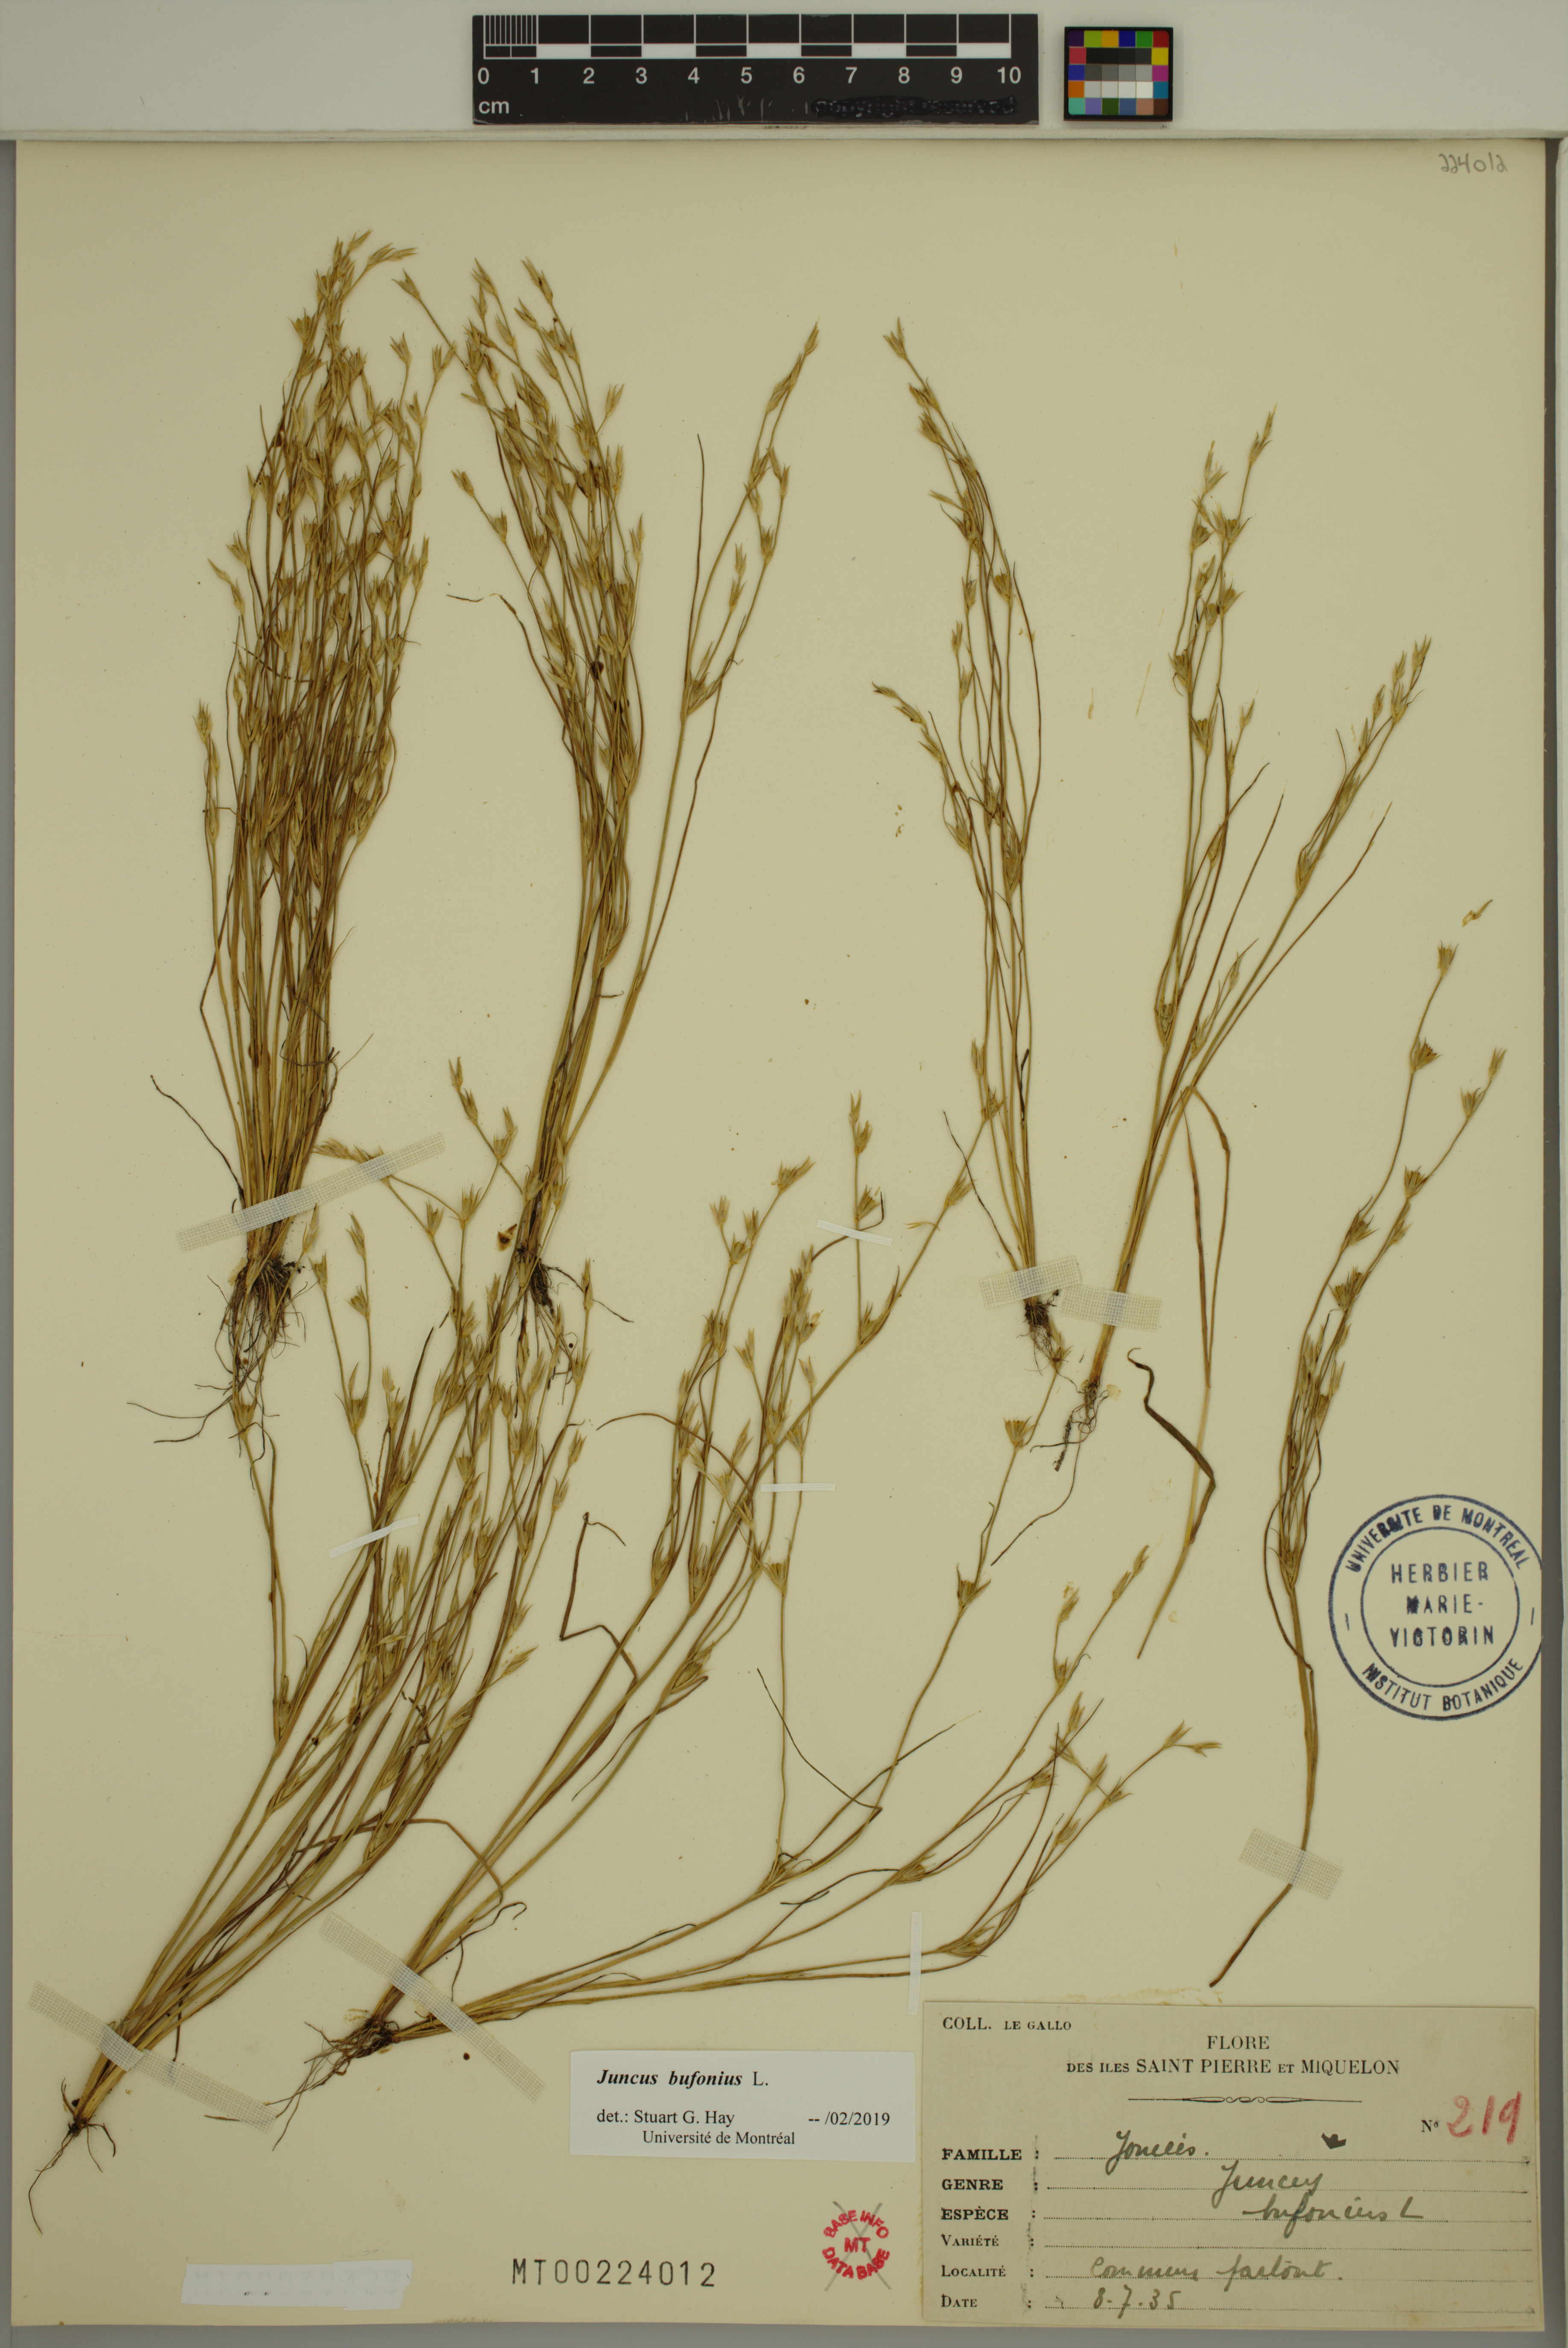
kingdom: Plantae
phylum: Tracheophyta
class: Liliopsida
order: Poales
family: Juncaceae
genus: Juncus
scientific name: Juncus bufonius
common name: Toad rush
